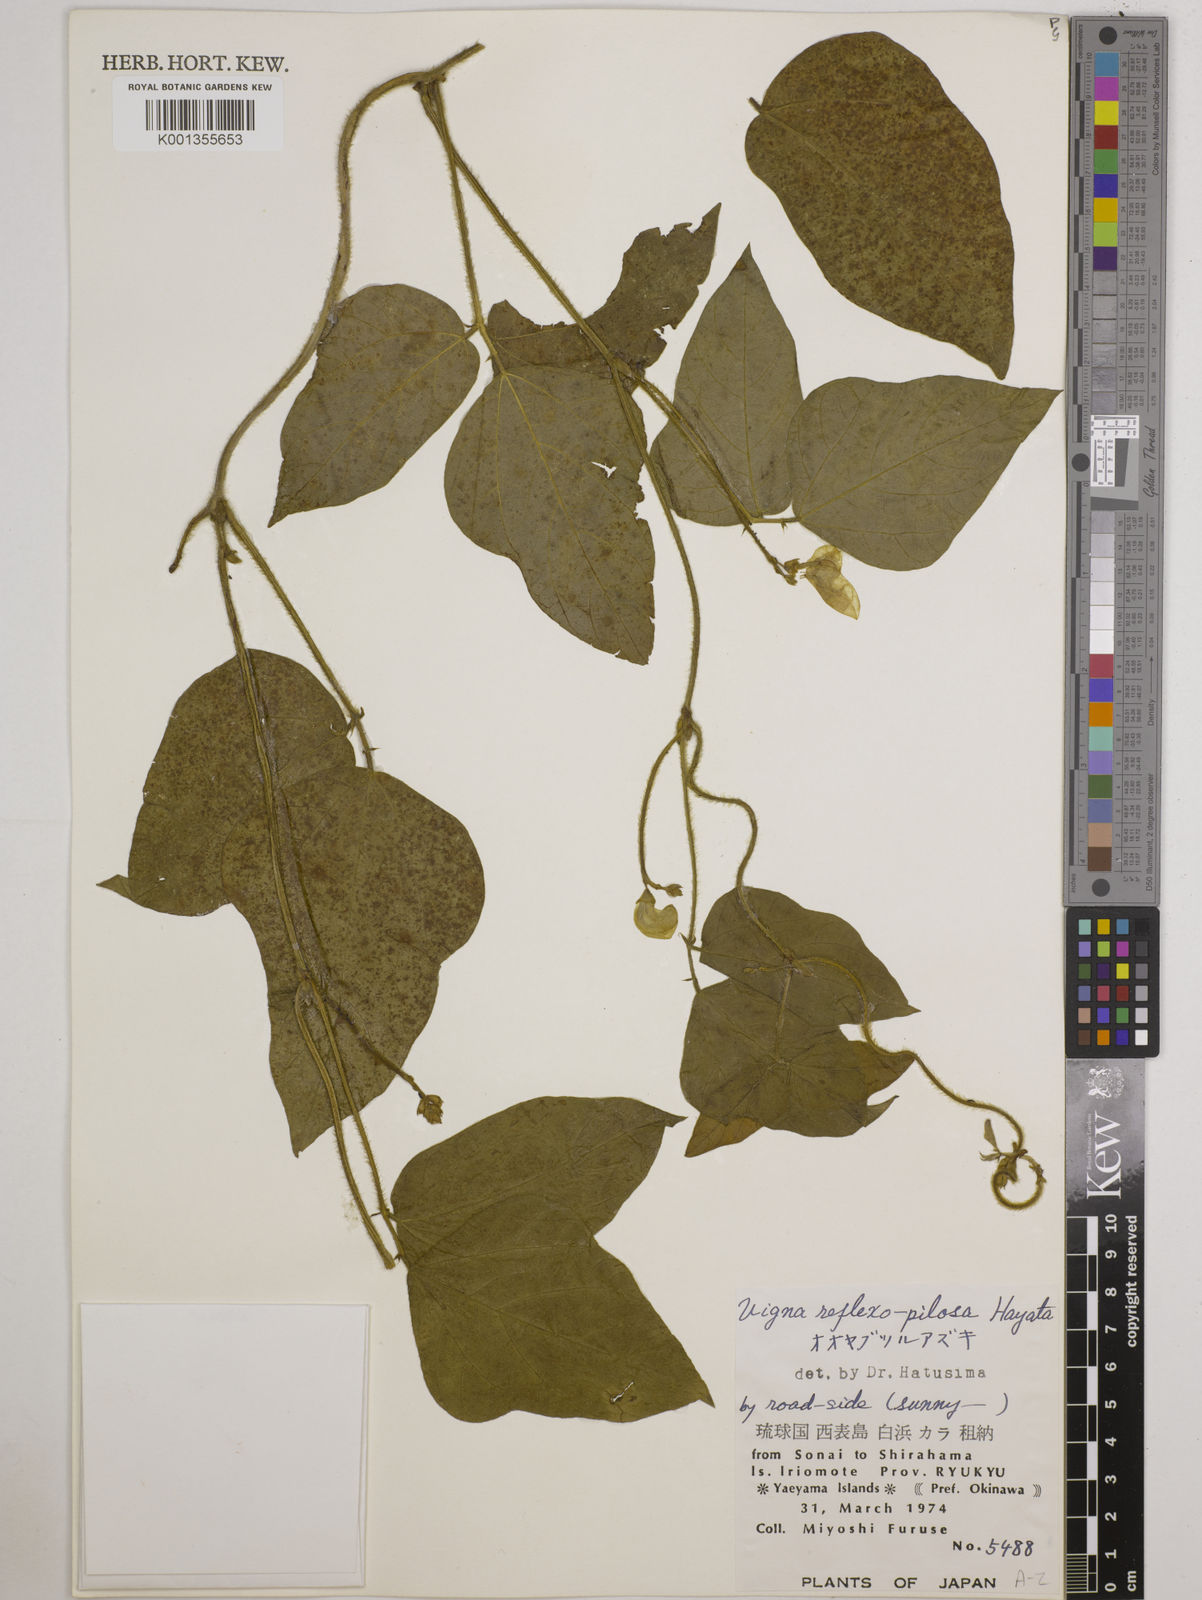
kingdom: Plantae
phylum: Tracheophyta
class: Magnoliopsida
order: Fabales
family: Fabaceae
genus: Vigna
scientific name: Vigna reflexopilosa
